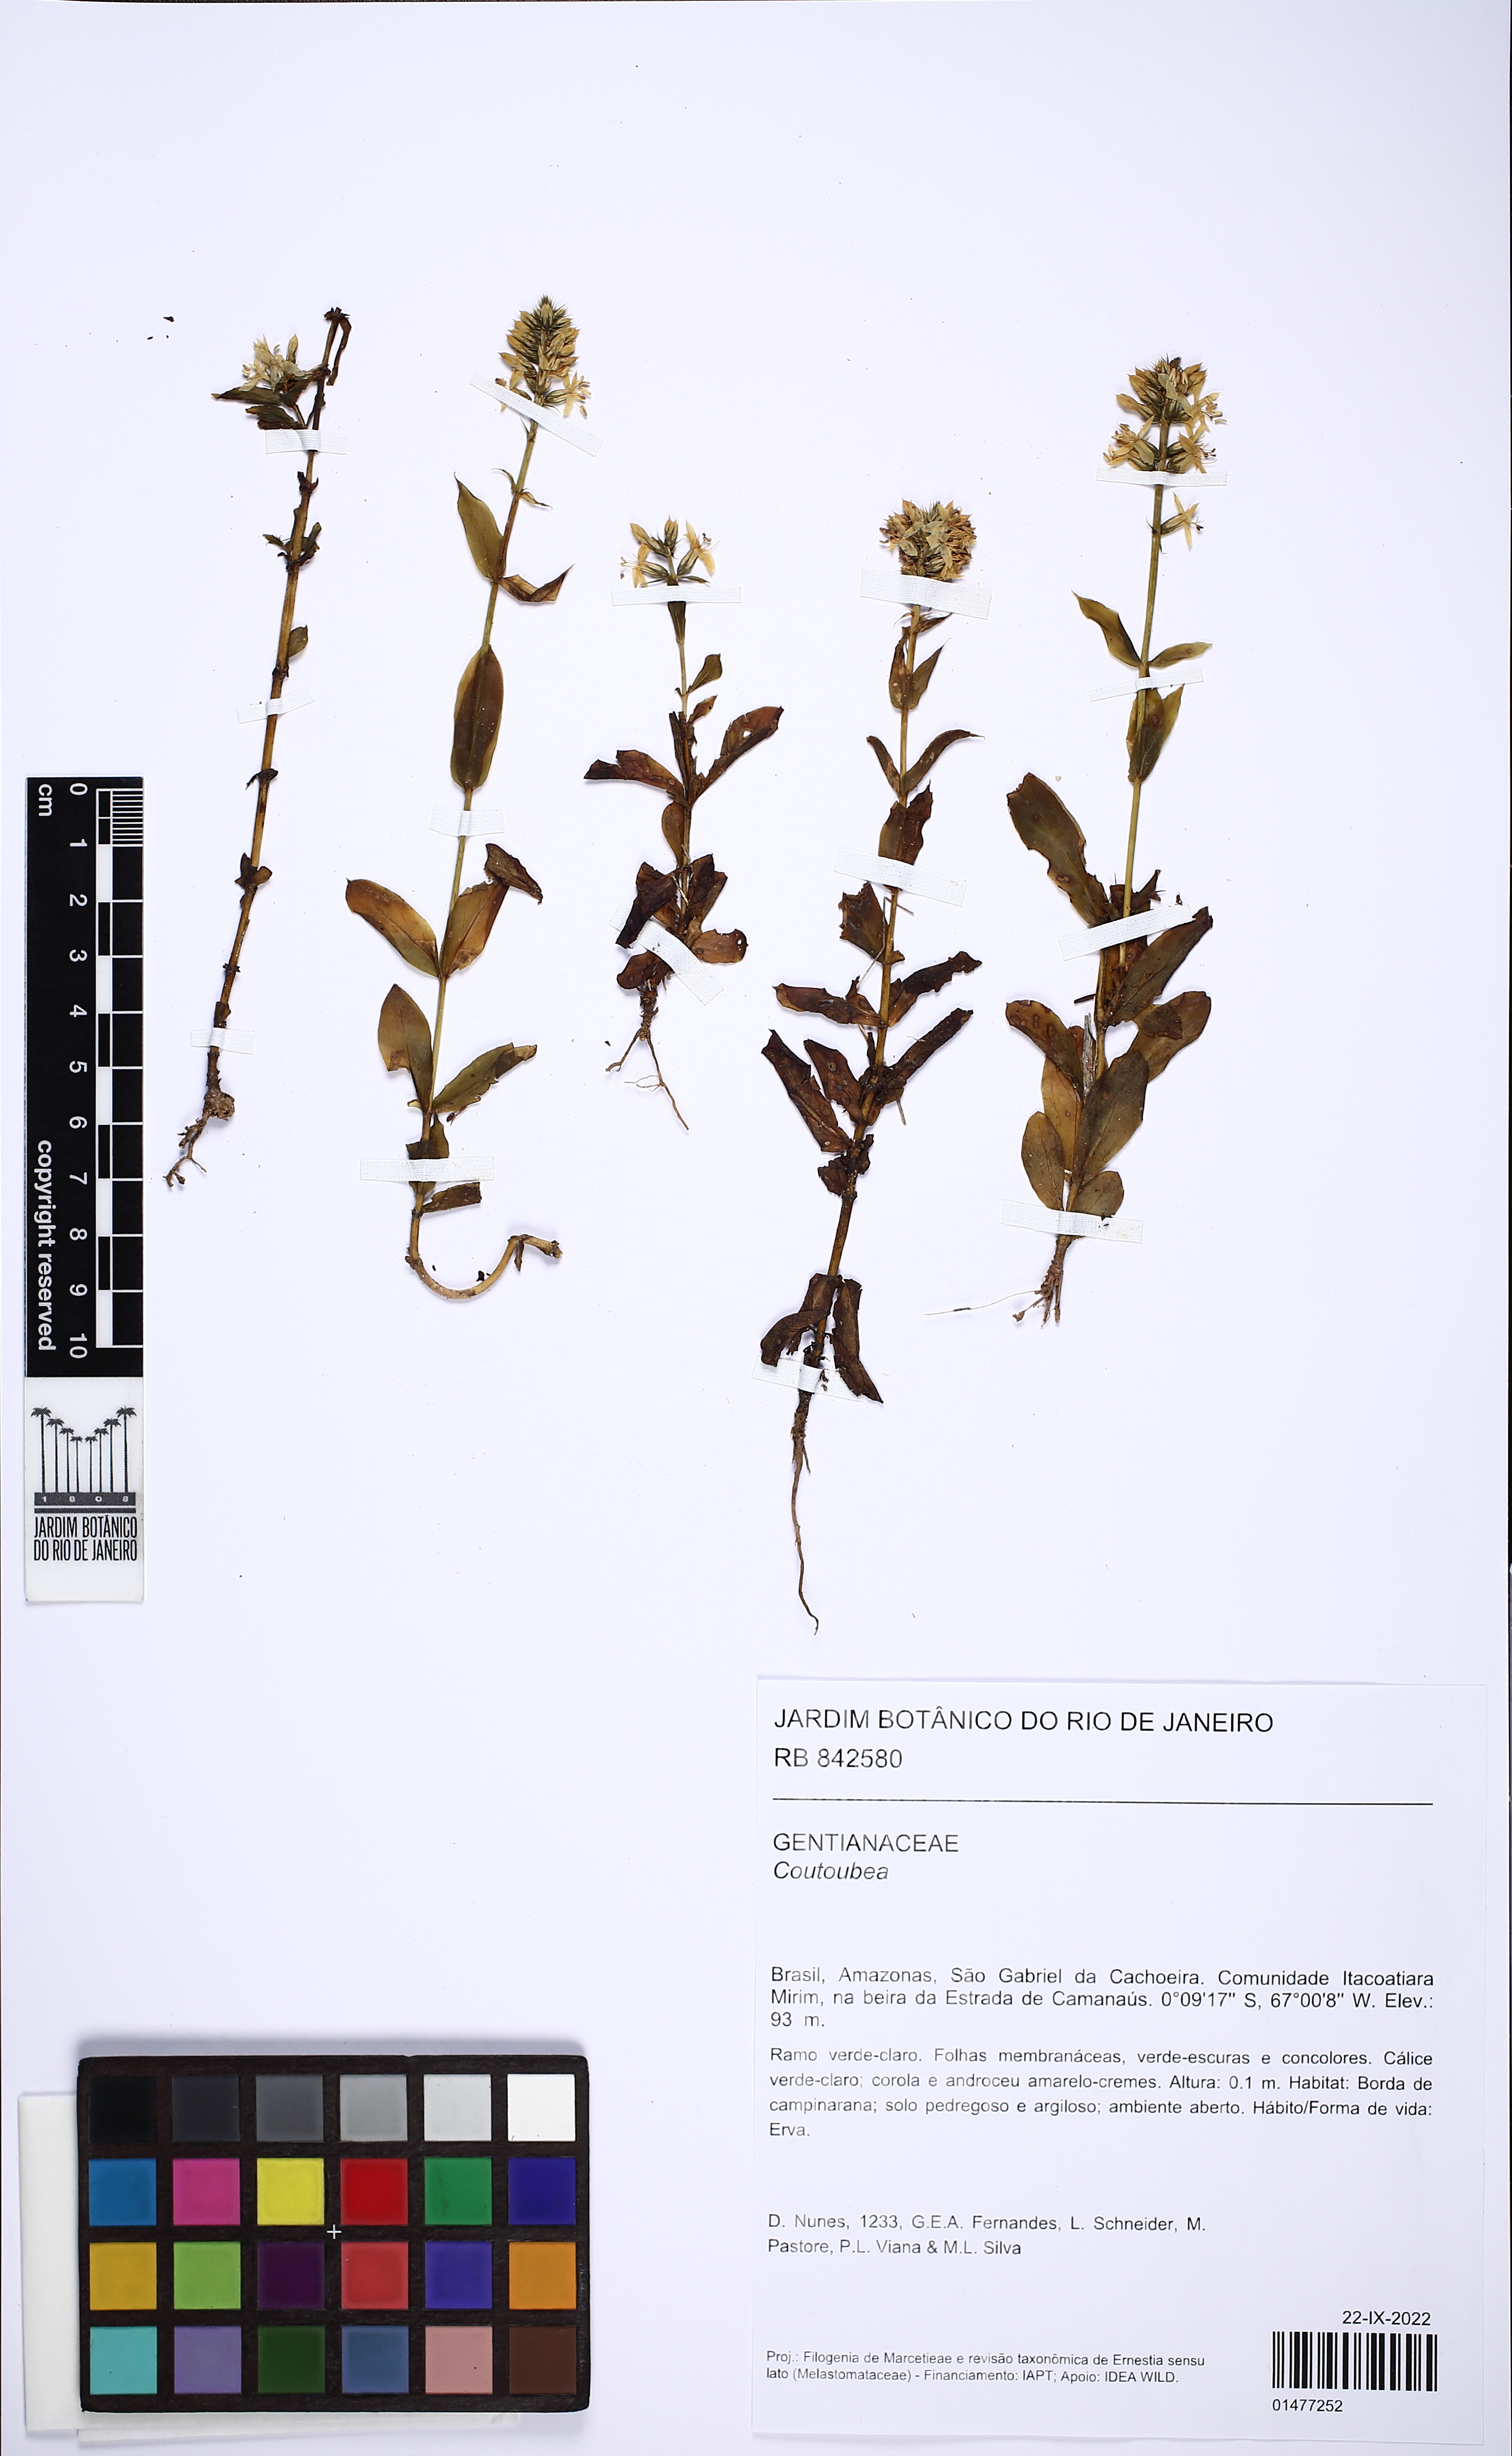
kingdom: Plantae
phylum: Tracheophyta
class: Magnoliopsida
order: Gentianales
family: Gentianaceae
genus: Coutoubea
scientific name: Coutoubea
